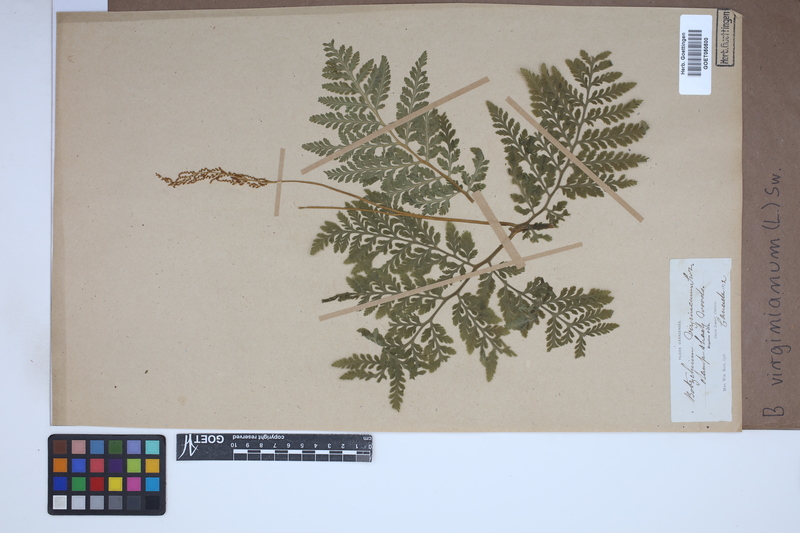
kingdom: Plantae
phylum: Tracheophyta
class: Polypodiopsida
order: Ophioglossales
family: Ophioglossaceae
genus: Botrychium
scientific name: Botrychium virginianum
